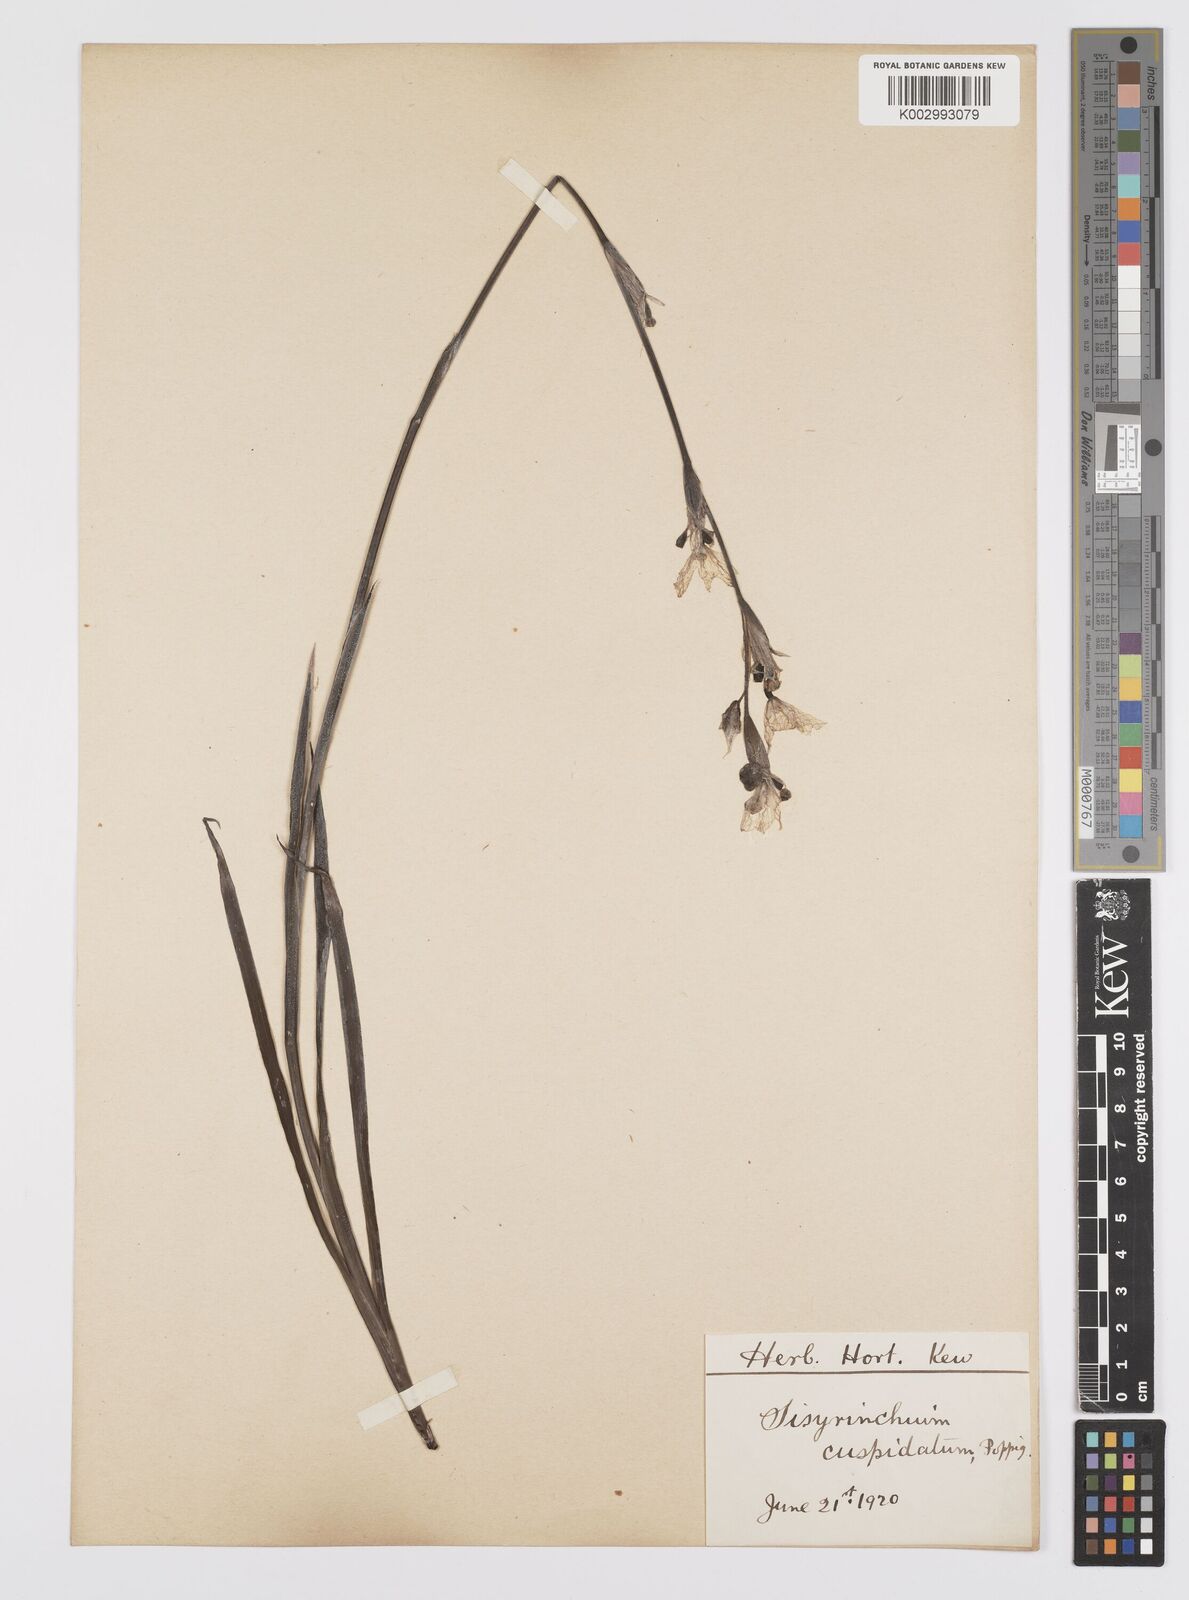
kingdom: Plantae
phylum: Tracheophyta
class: Liliopsida
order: Asparagales
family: Iridaceae
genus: Sisyrinchium
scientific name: Sisyrinchium cuspidatum
